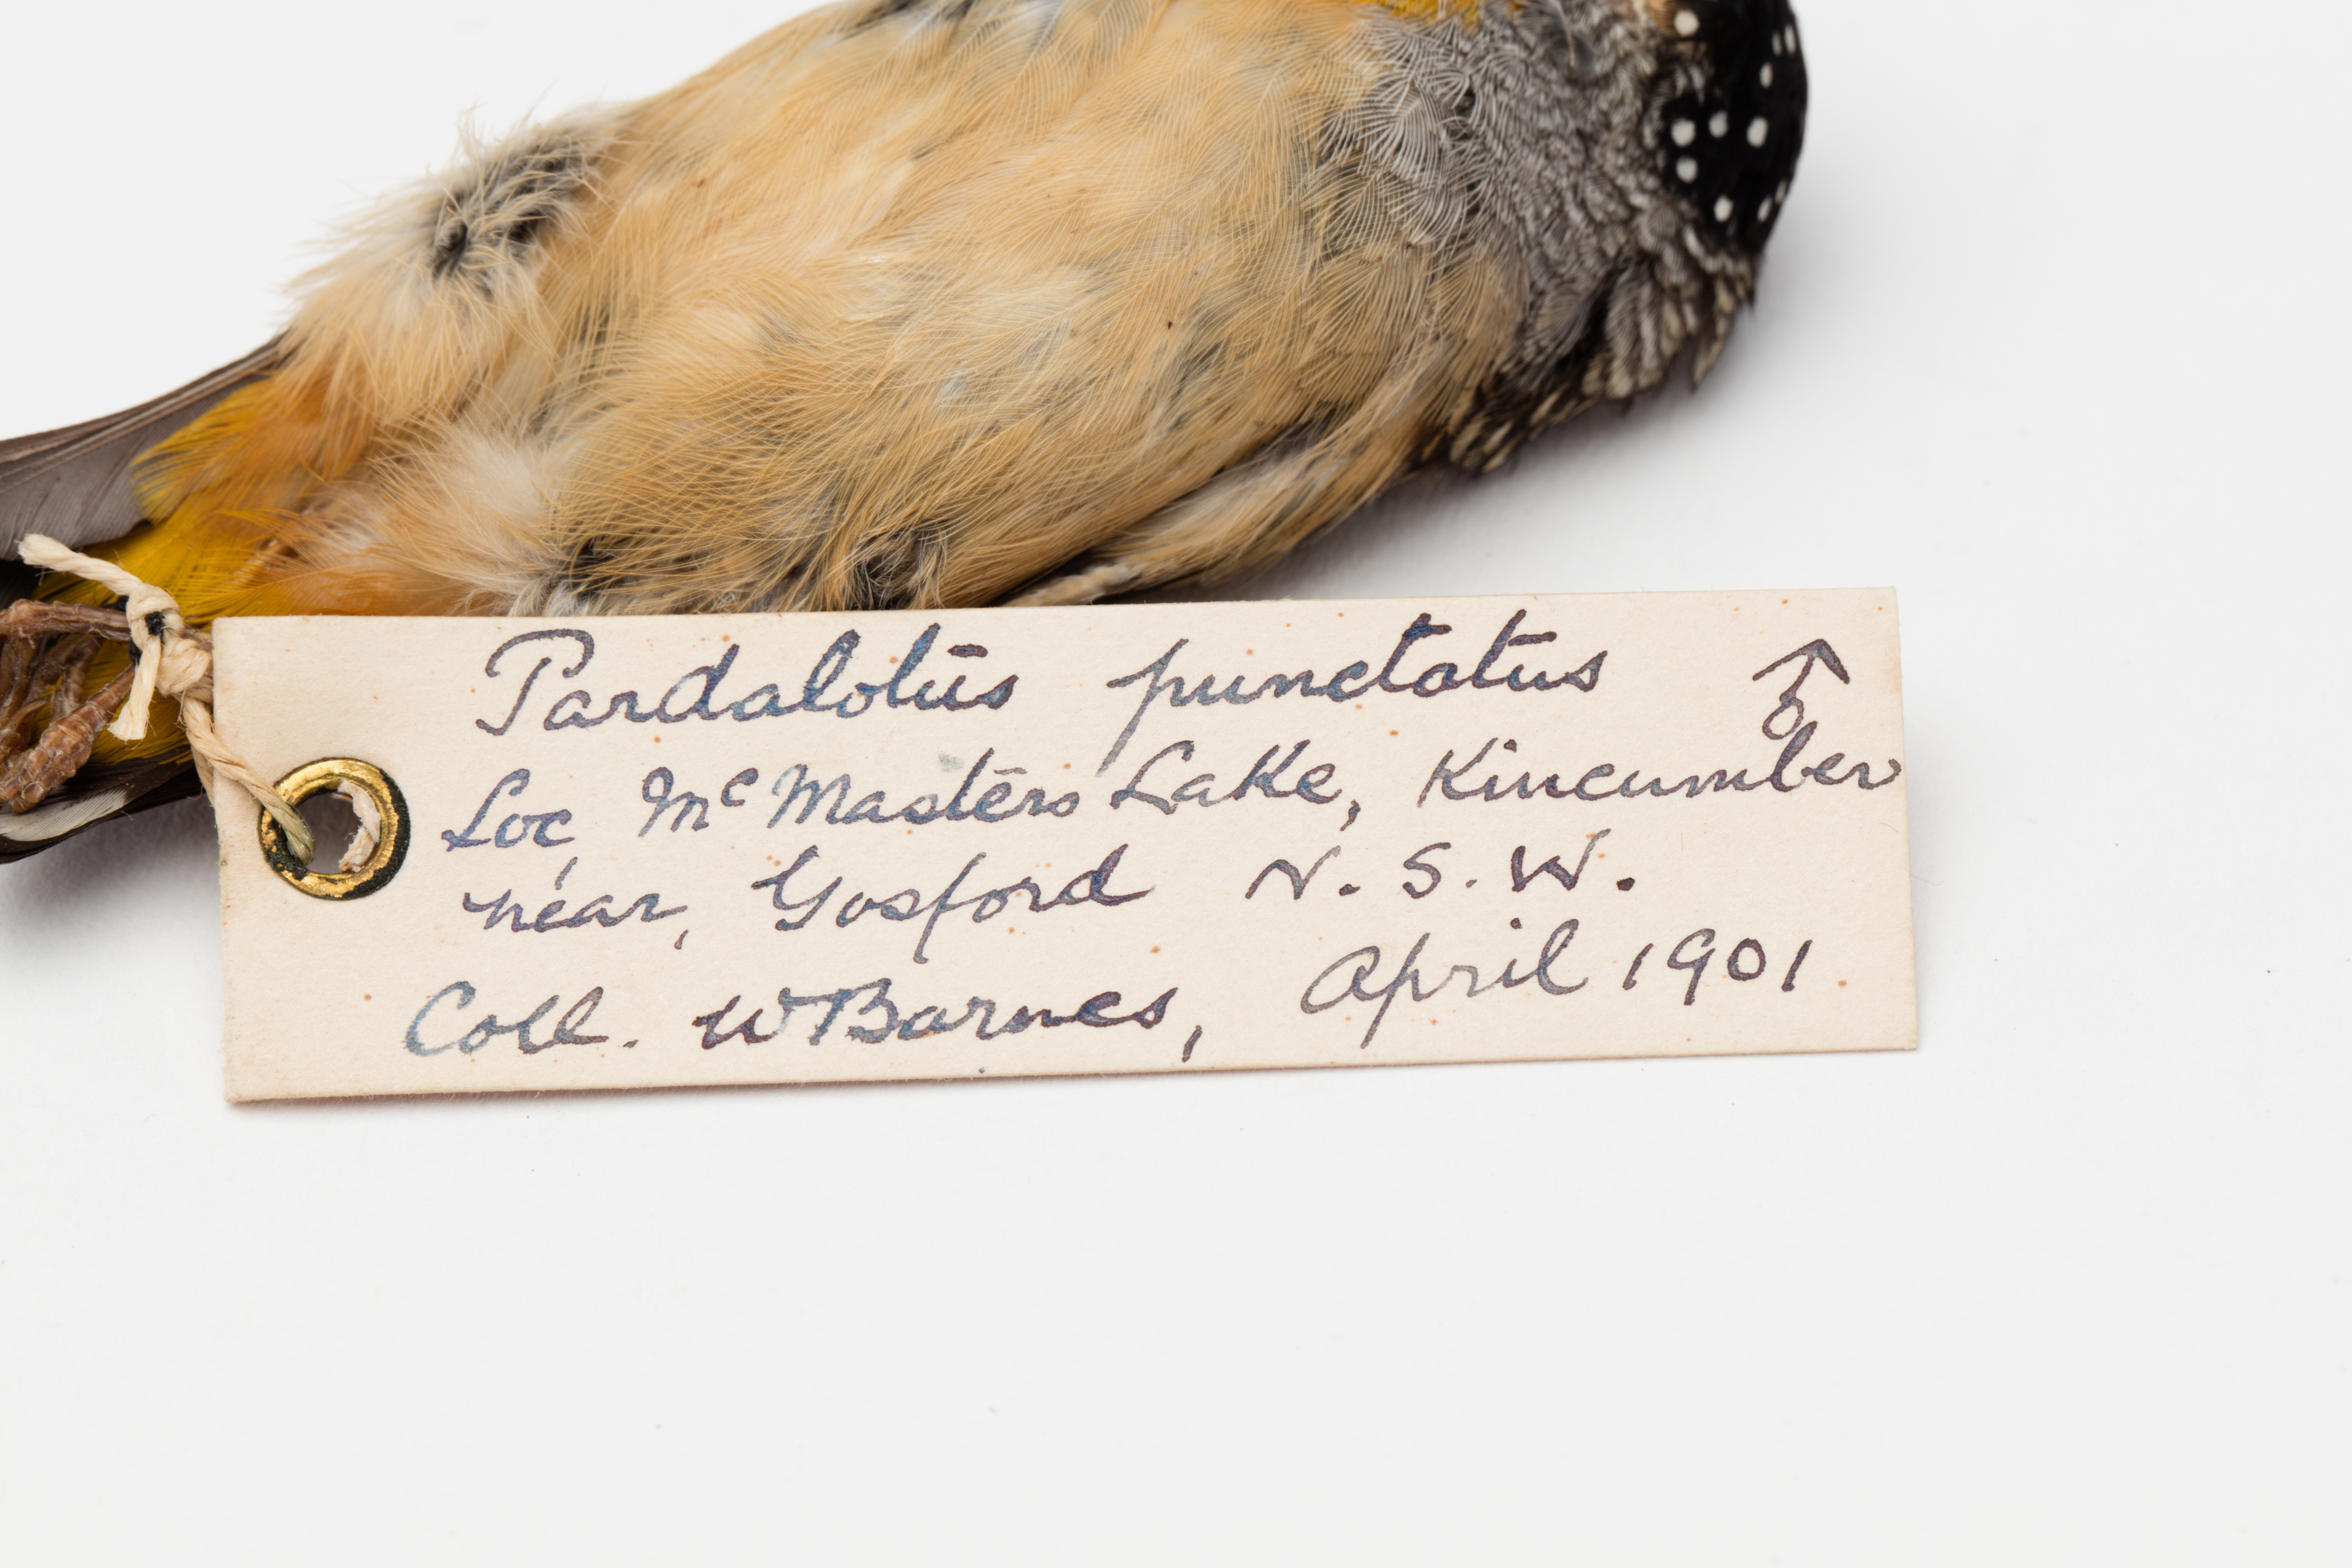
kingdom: Animalia
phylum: Chordata
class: Aves
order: Passeriformes
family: Pardalotidae
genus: Pardalotus
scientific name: Pardalotus punctatus
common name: Spotted pardalote
